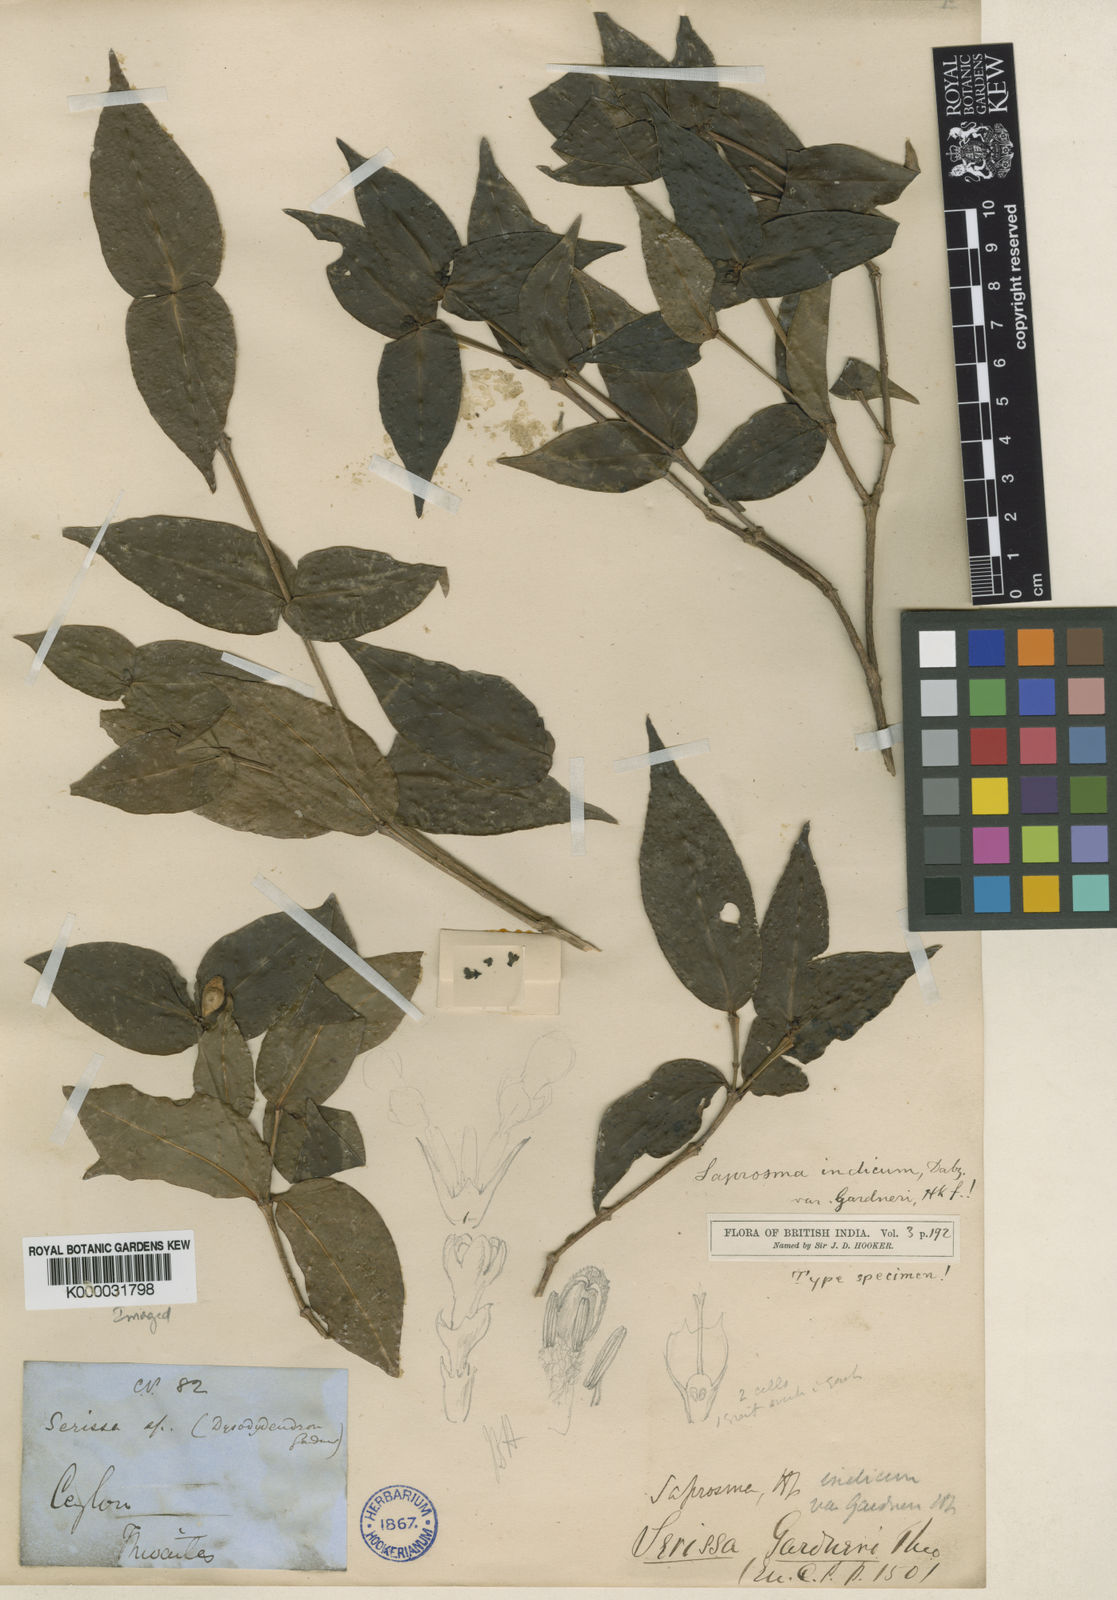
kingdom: Plantae
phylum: Tracheophyta
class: Magnoliopsida
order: Gentianales
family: Rubiaceae
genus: Saprosma
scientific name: Saprosma glomerata
